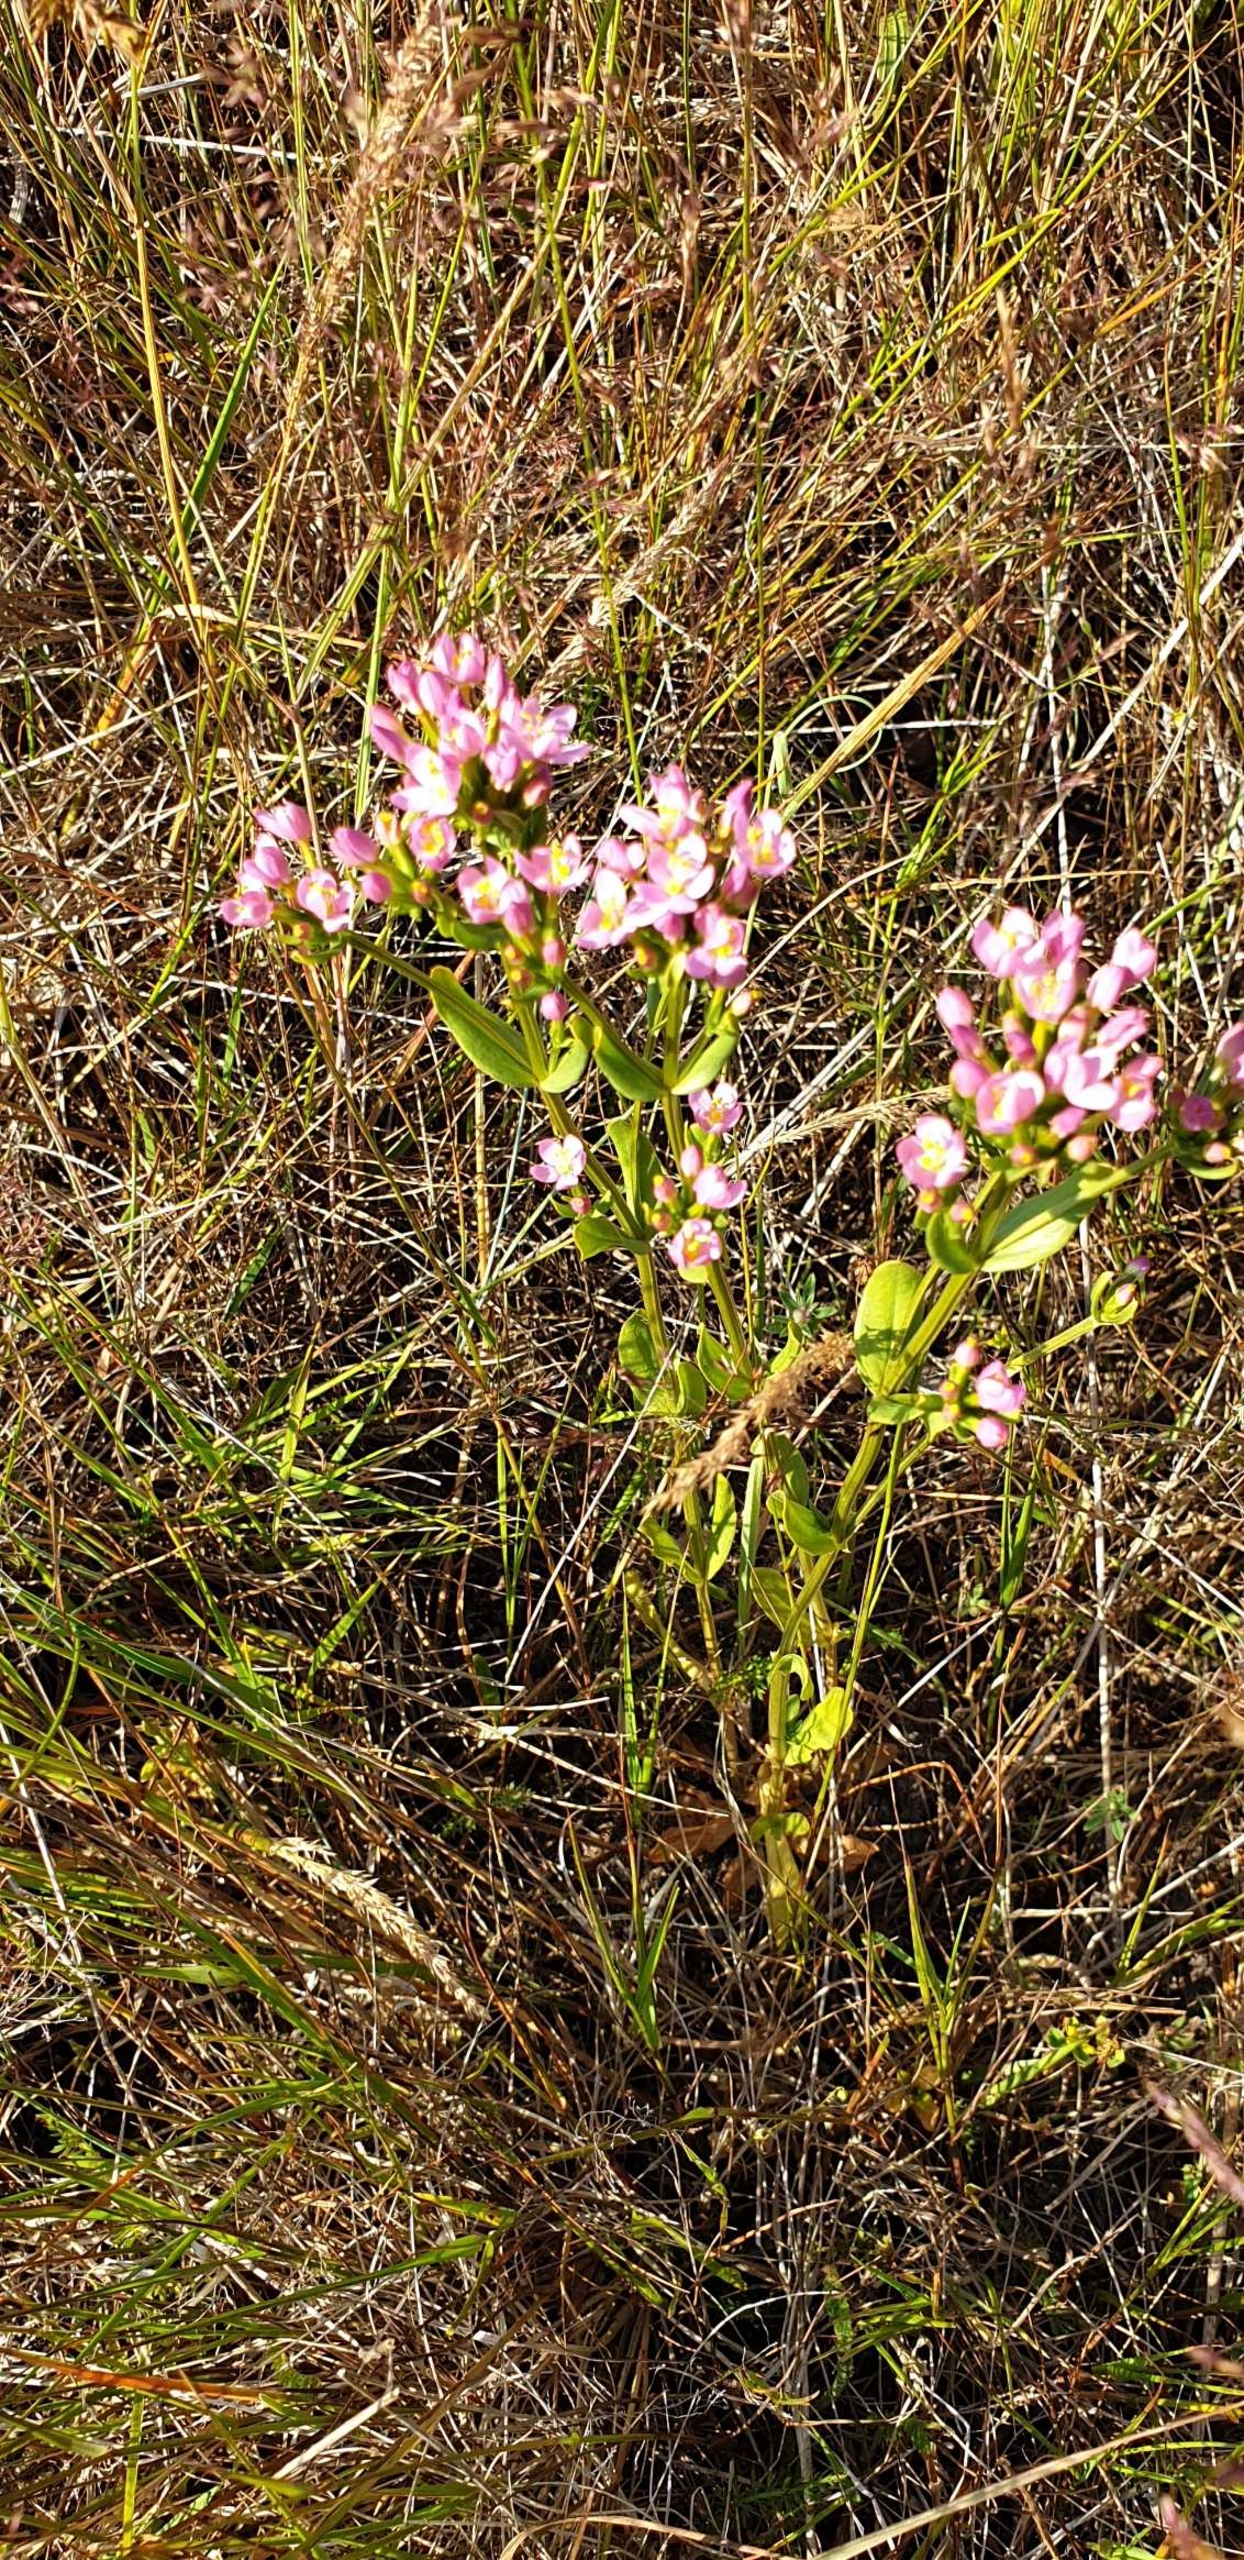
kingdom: Plantae
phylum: Tracheophyta
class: Magnoliopsida
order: Gentianales
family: Gentianaceae
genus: Centaurium
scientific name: Centaurium erythraea
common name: Mark-tusindgylden
